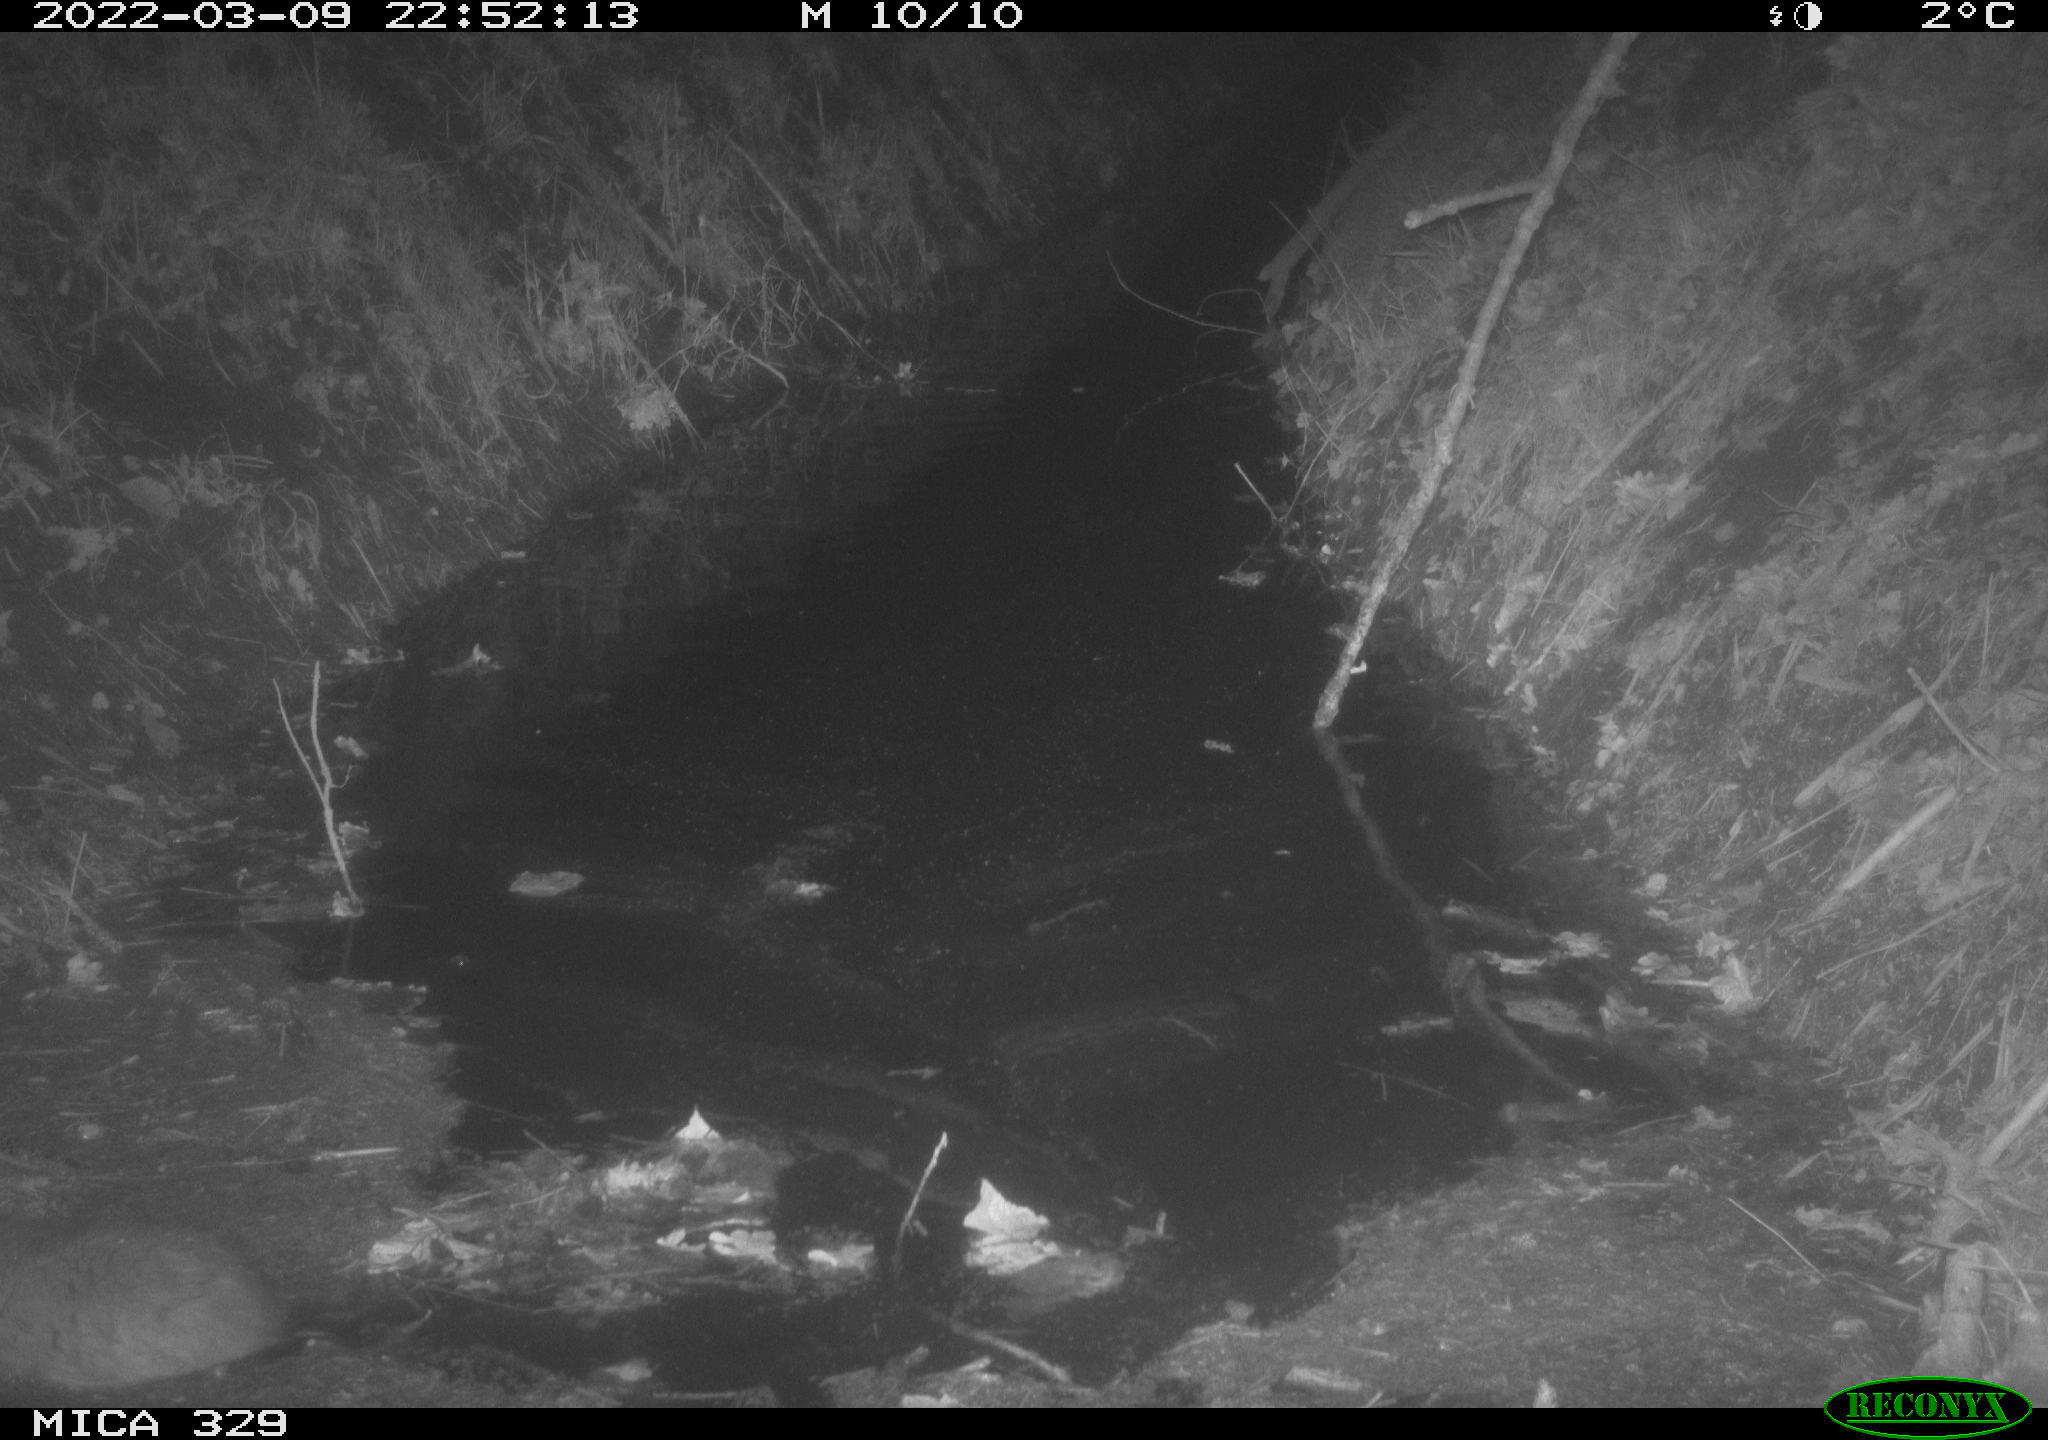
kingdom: Animalia
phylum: Chordata
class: Mammalia
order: Rodentia
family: Cricetidae
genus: Ondatra
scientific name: Ondatra zibethicus
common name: Muskrat
